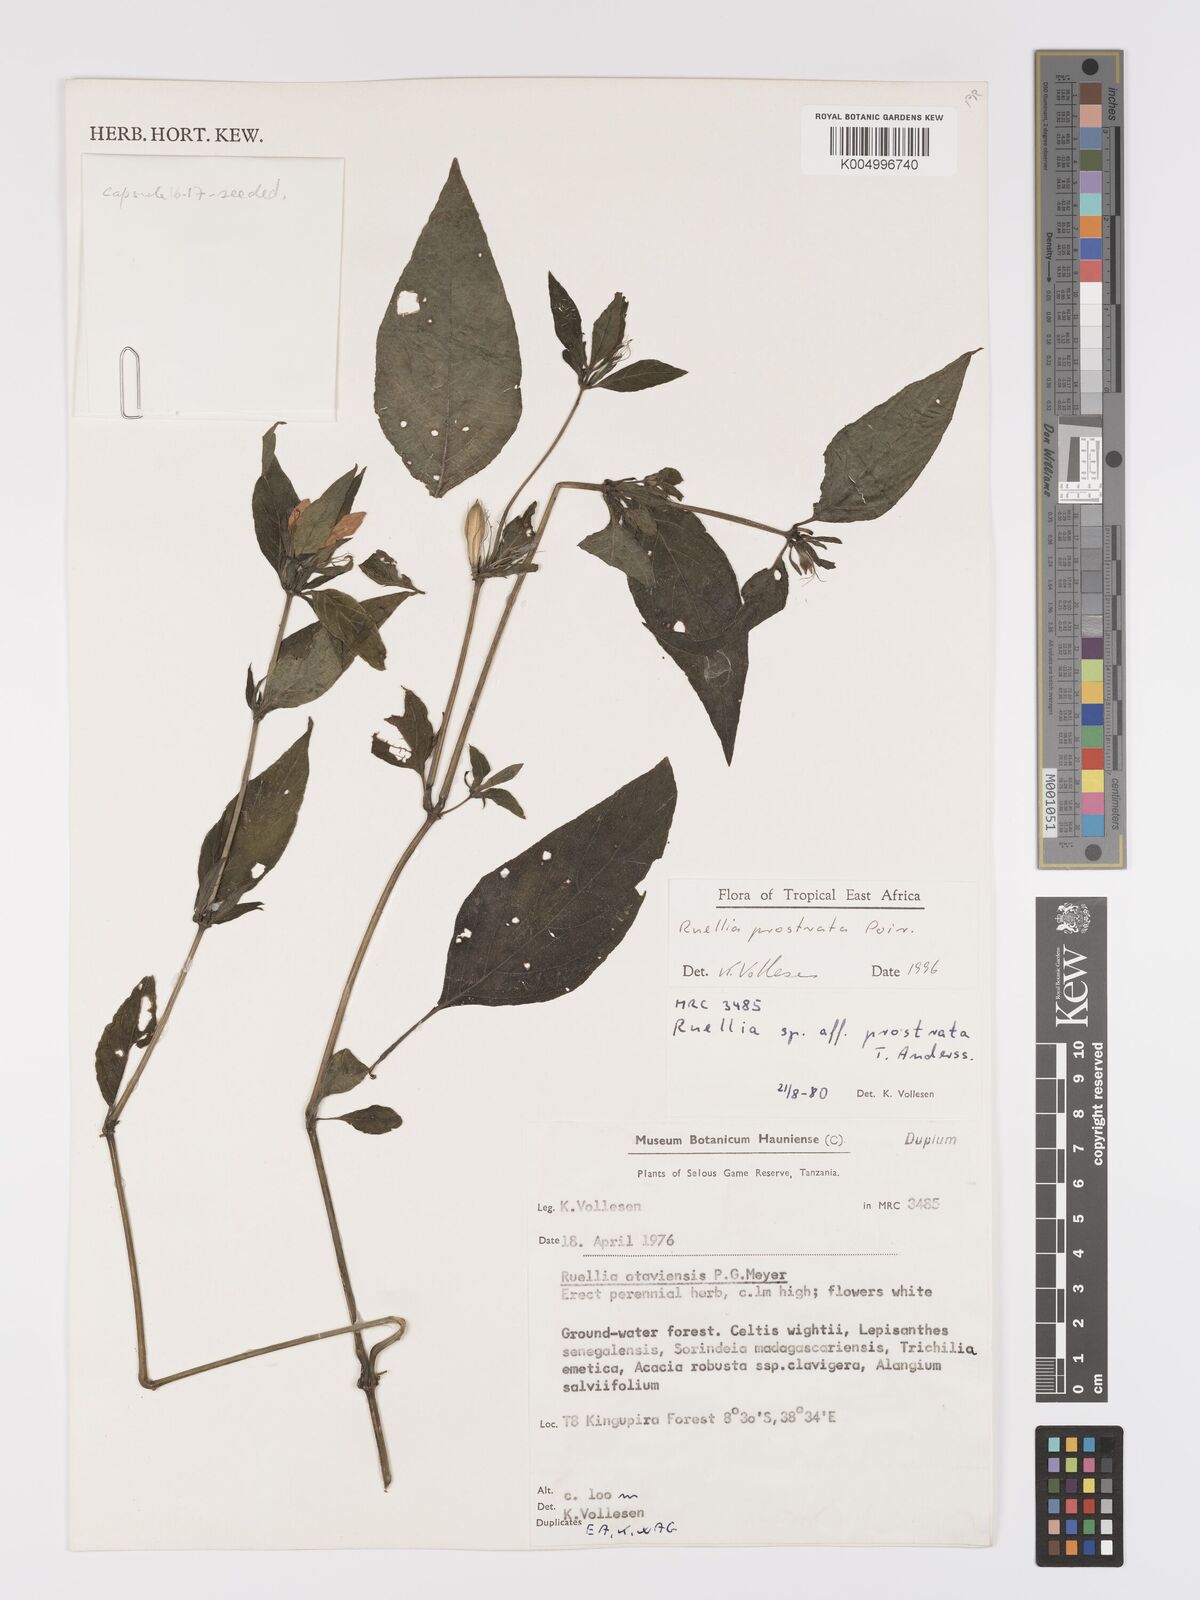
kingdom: Plantae
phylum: Tracheophyta
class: Magnoliopsida
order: Lamiales
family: Acanthaceae
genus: Ruellia
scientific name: Ruellia
